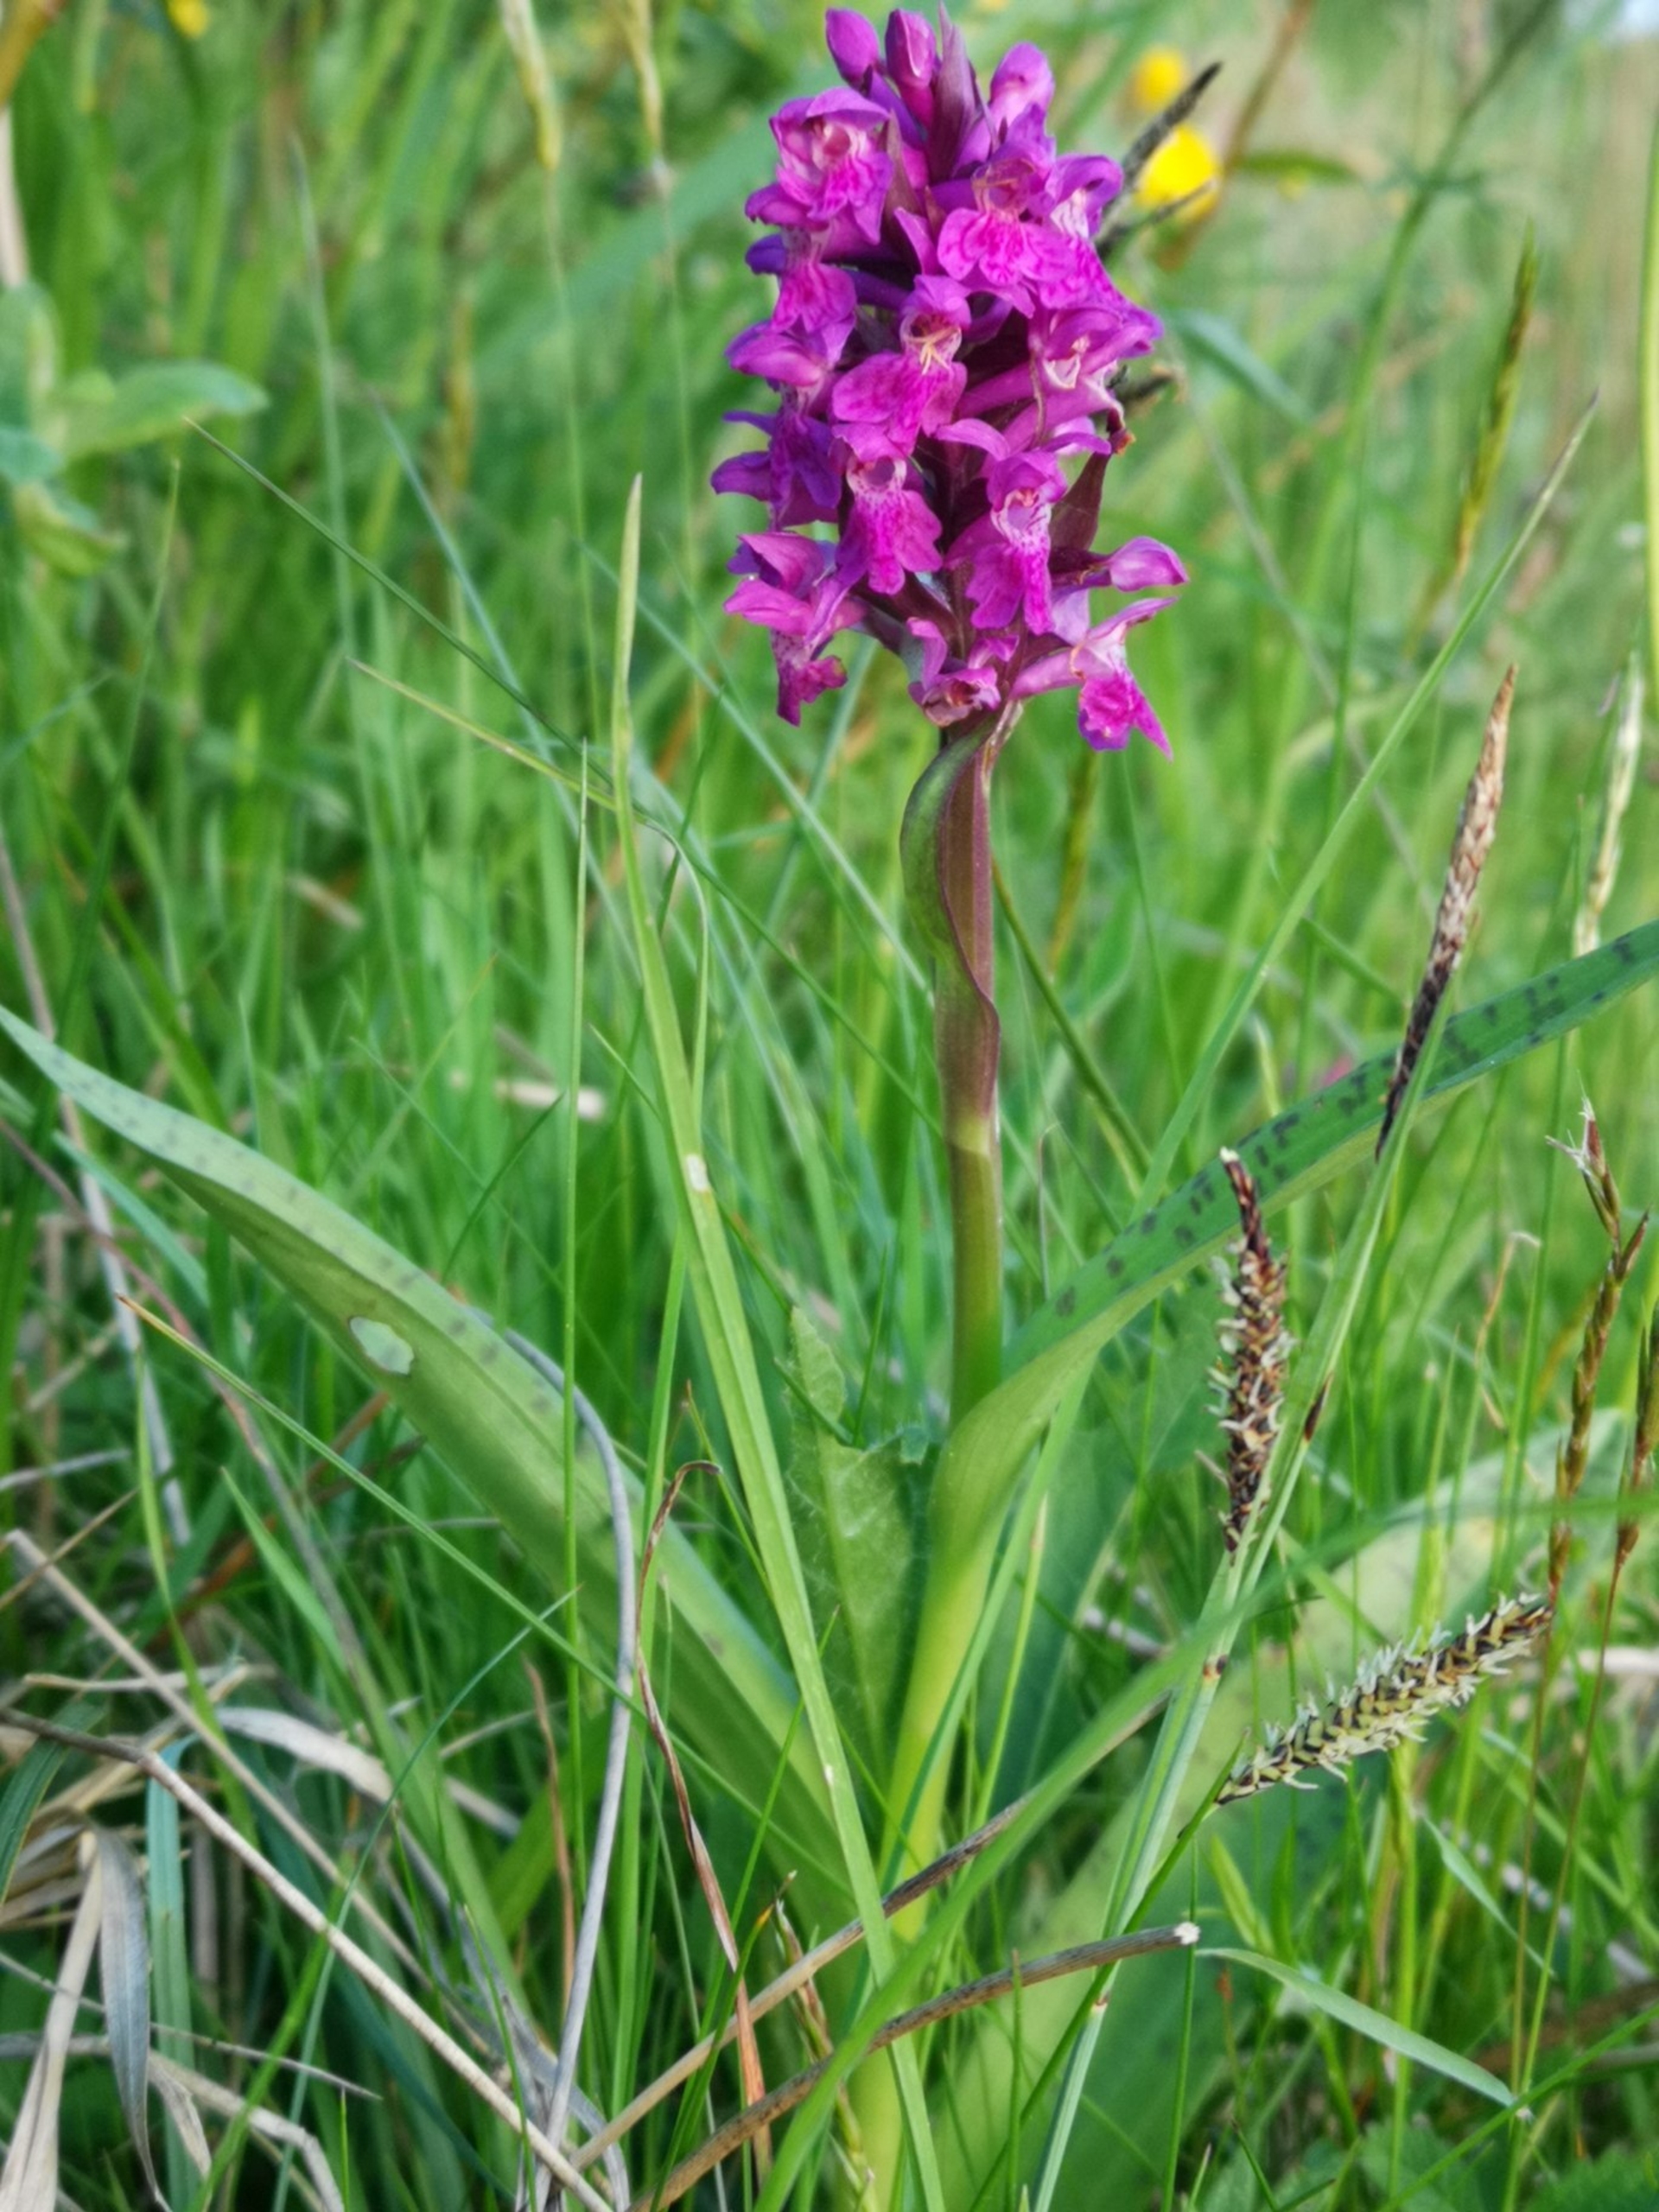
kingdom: Plantae
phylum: Tracheophyta
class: Liliopsida
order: Asparagales
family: Orchidaceae
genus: Dactylorhiza
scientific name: Dactylorhiza majalis
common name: Maj-gøgeurt
